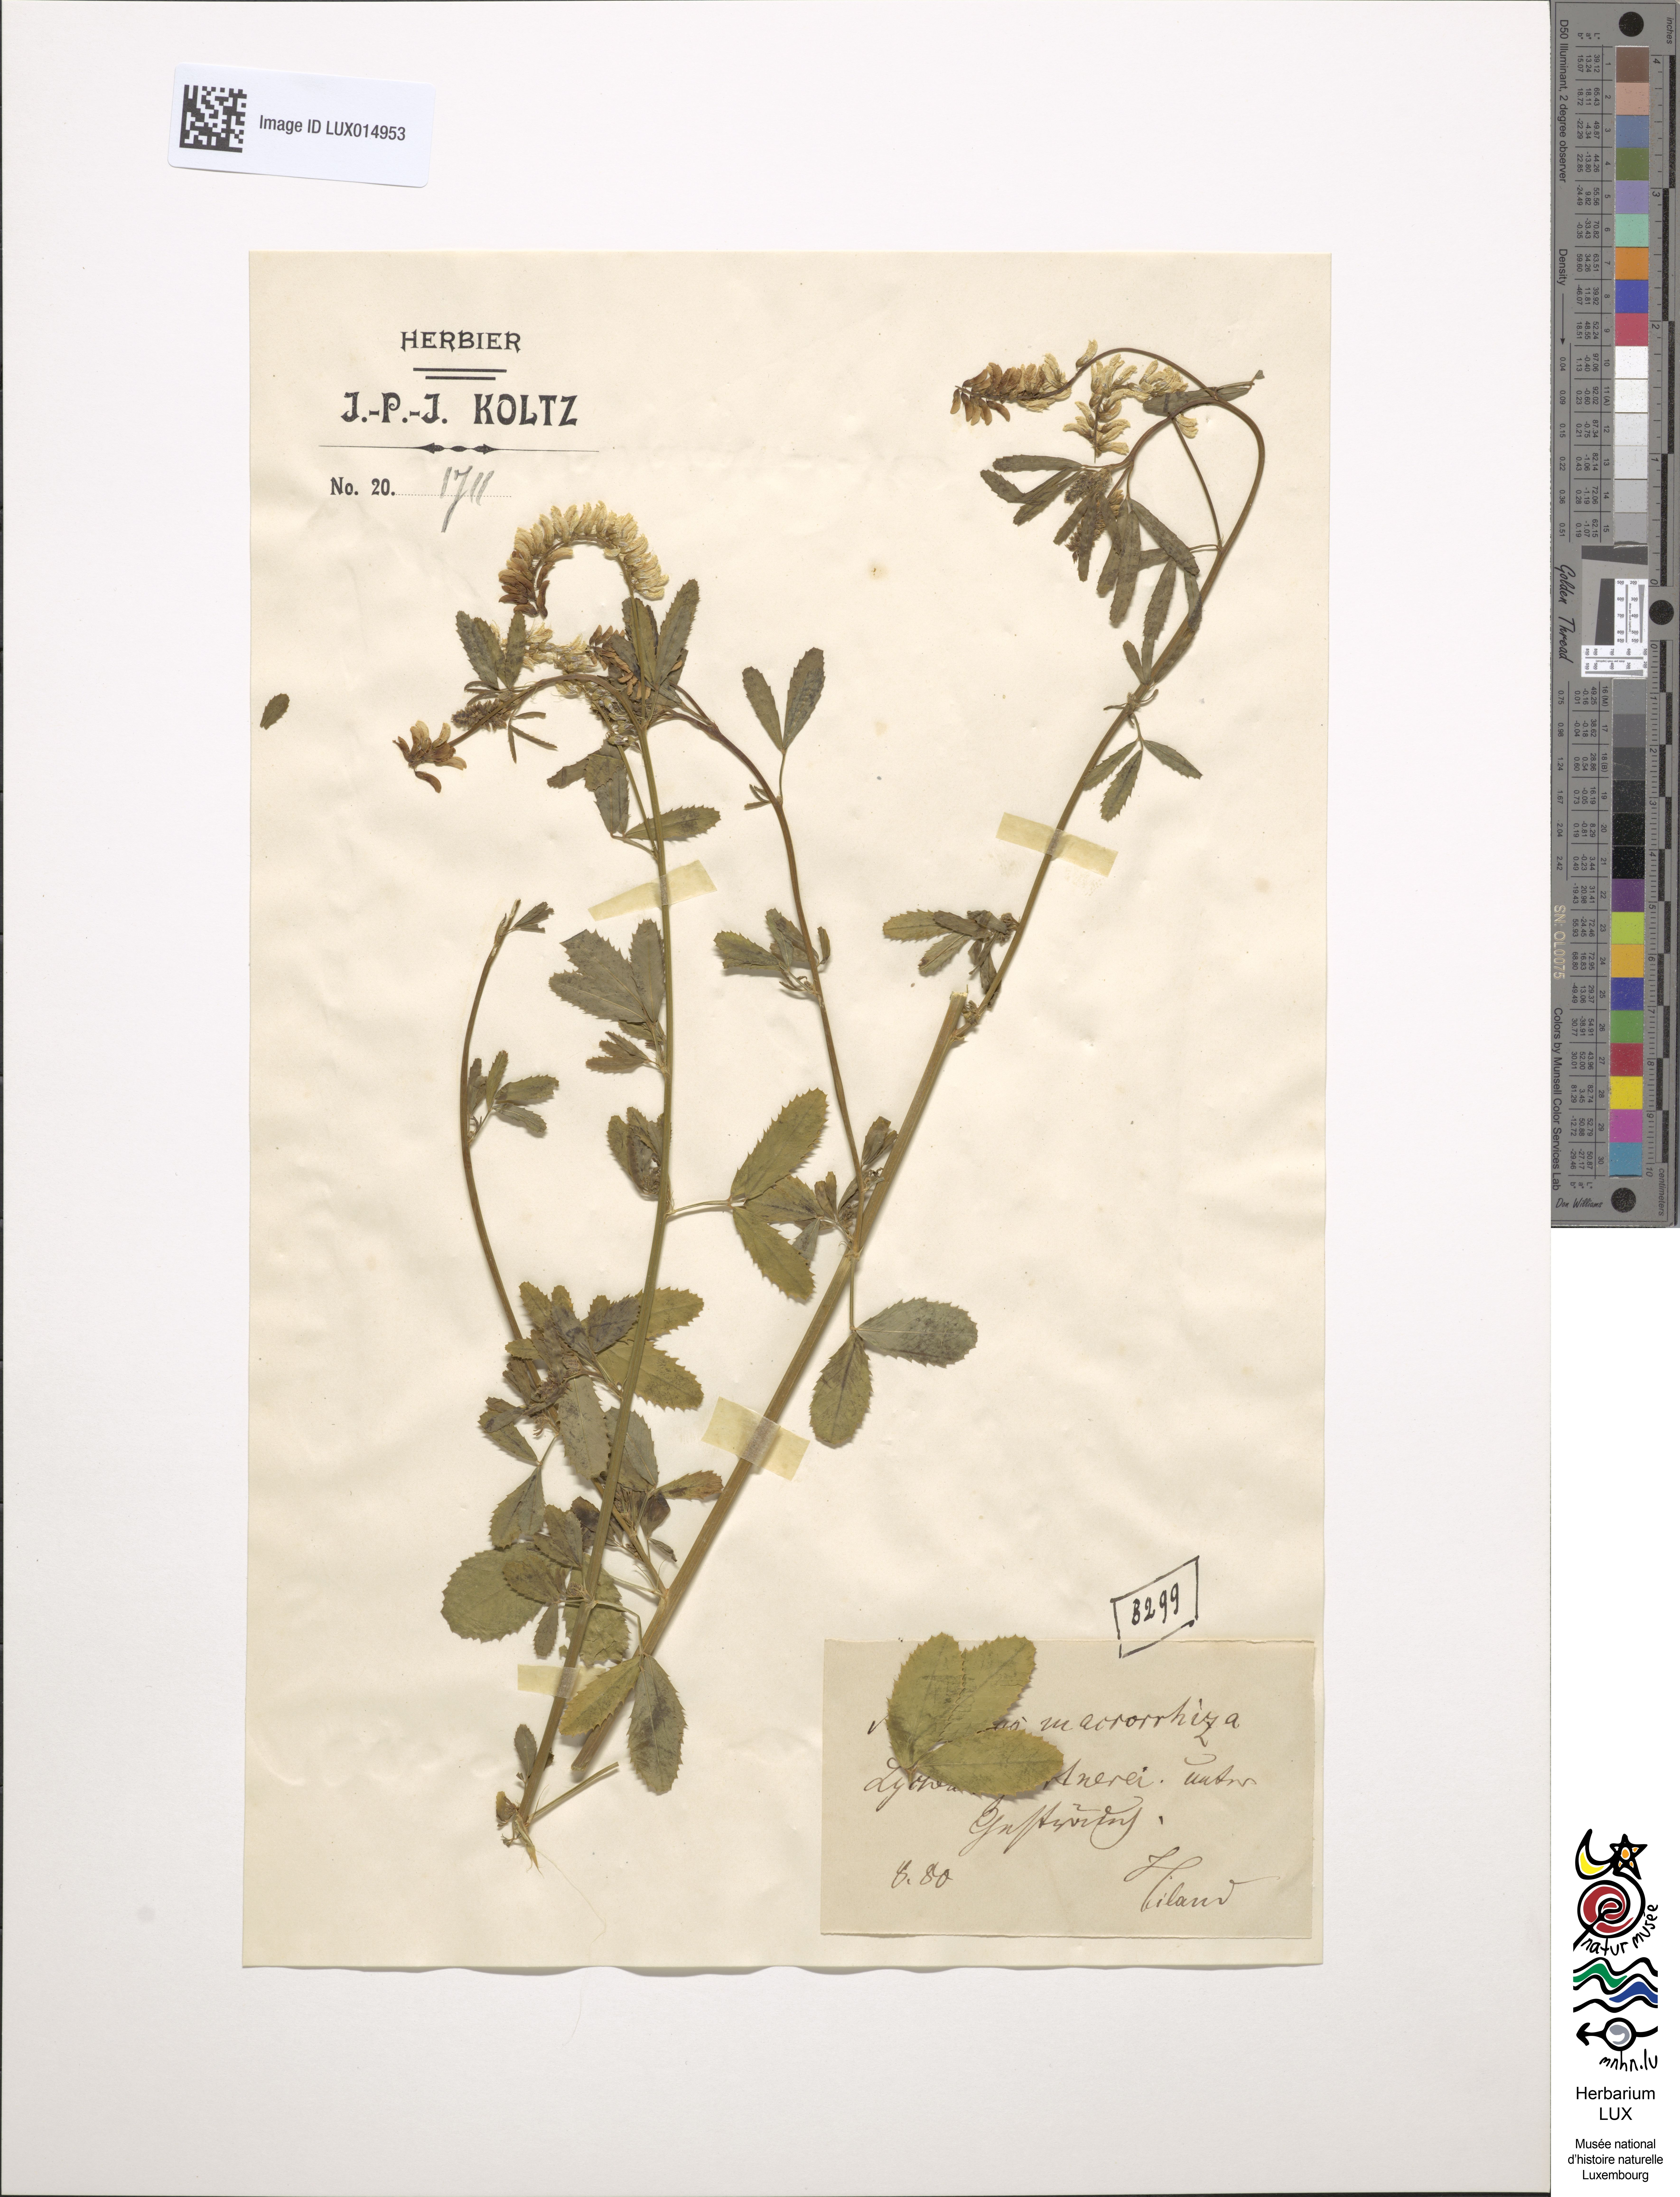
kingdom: Plantae
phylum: Tracheophyta
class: Magnoliopsida
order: Fabales
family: Fabaceae
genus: Melilotus
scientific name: Melilotus altissimus
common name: Tall melilot
